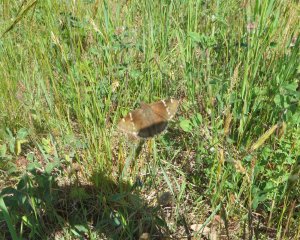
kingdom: Animalia
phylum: Arthropoda
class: Insecta
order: Lepidoptera
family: Hesperiidae
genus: Autochton
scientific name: Autochton
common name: Southern Cloudywing
